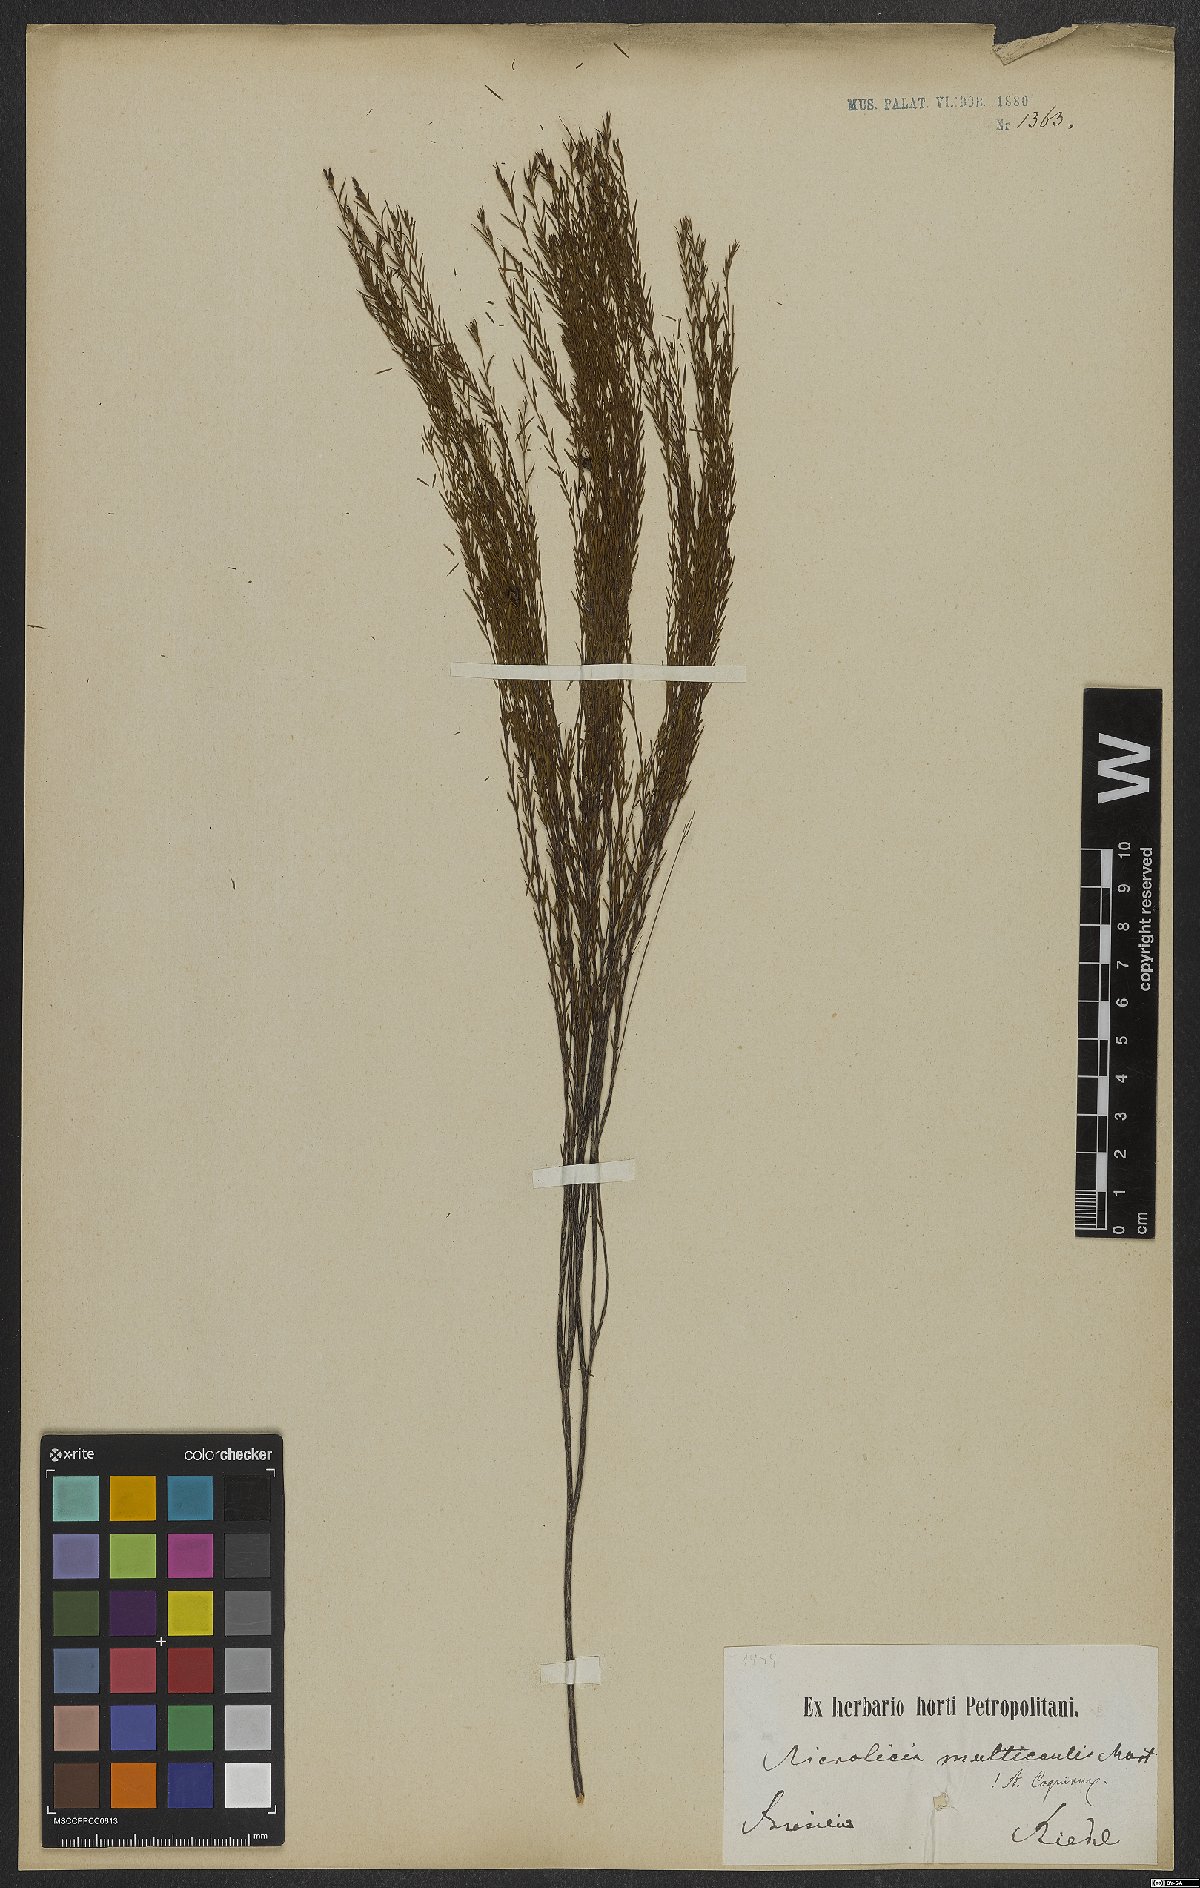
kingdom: Plantae
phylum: Tracheophyta
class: Magnoliopsida
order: Myrtales
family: Melastomataceae
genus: Microlicia
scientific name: Microlicia multicaulis
